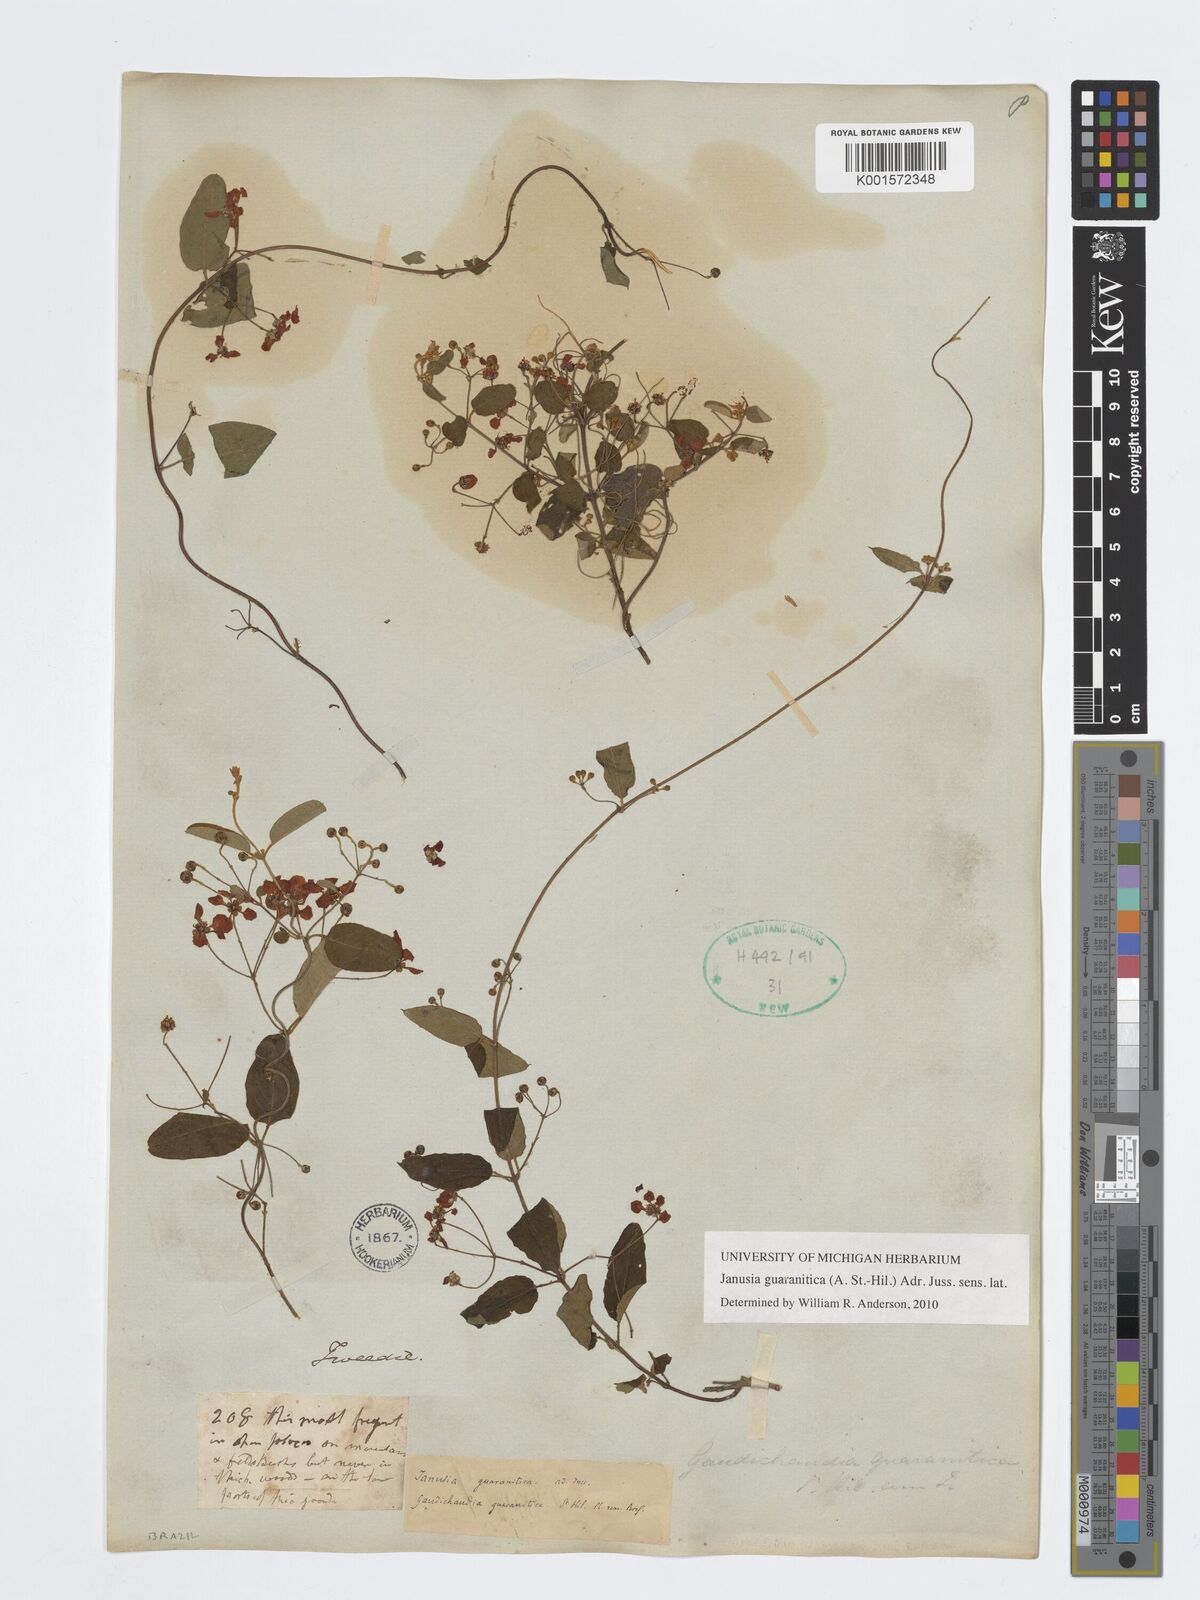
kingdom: Plantae
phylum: Tracheophyta
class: Magnoliopsida
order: Malpighiales
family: Malpighiaceae
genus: Janusia
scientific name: Janusia guaranitica
